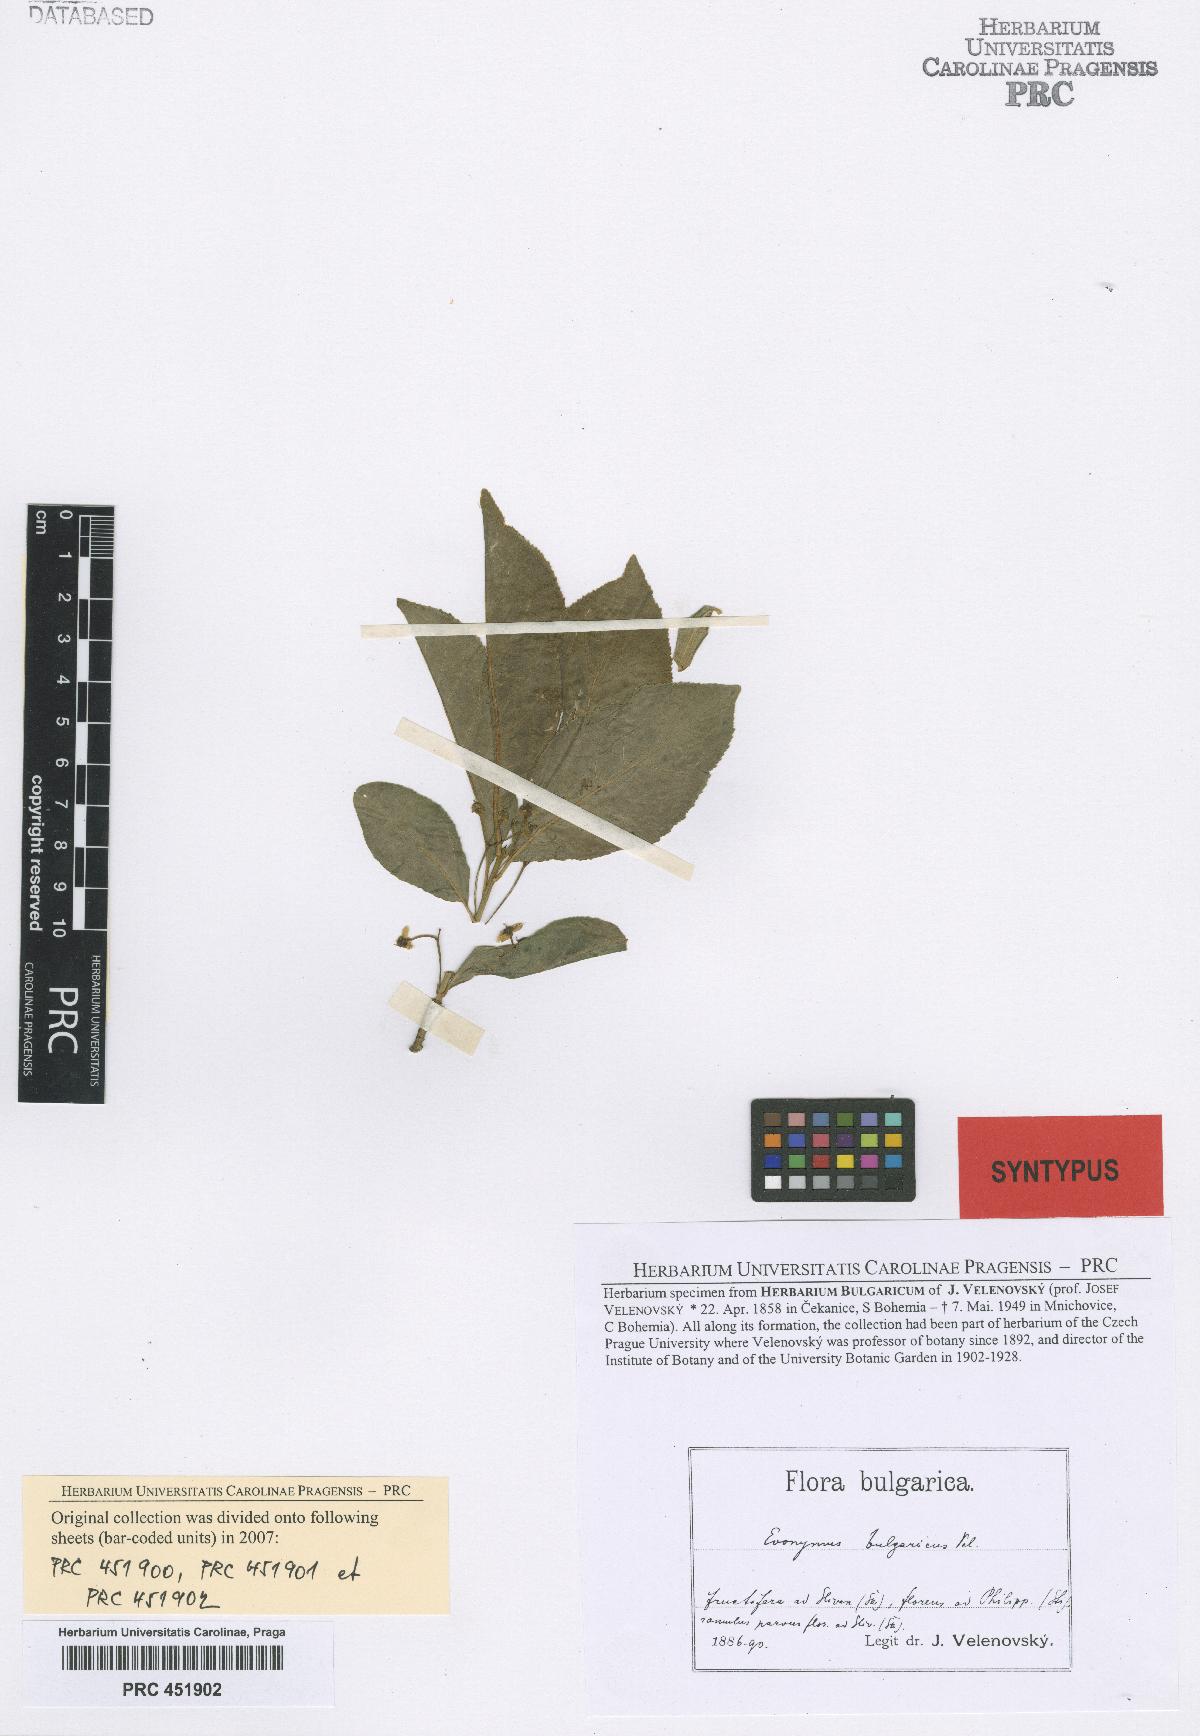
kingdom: Plantae
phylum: Tracheophyta
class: Magnoliopsida
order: Celastrales
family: Celastraceae
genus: Euonymus
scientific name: Euonymus europaeus
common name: Spindle
